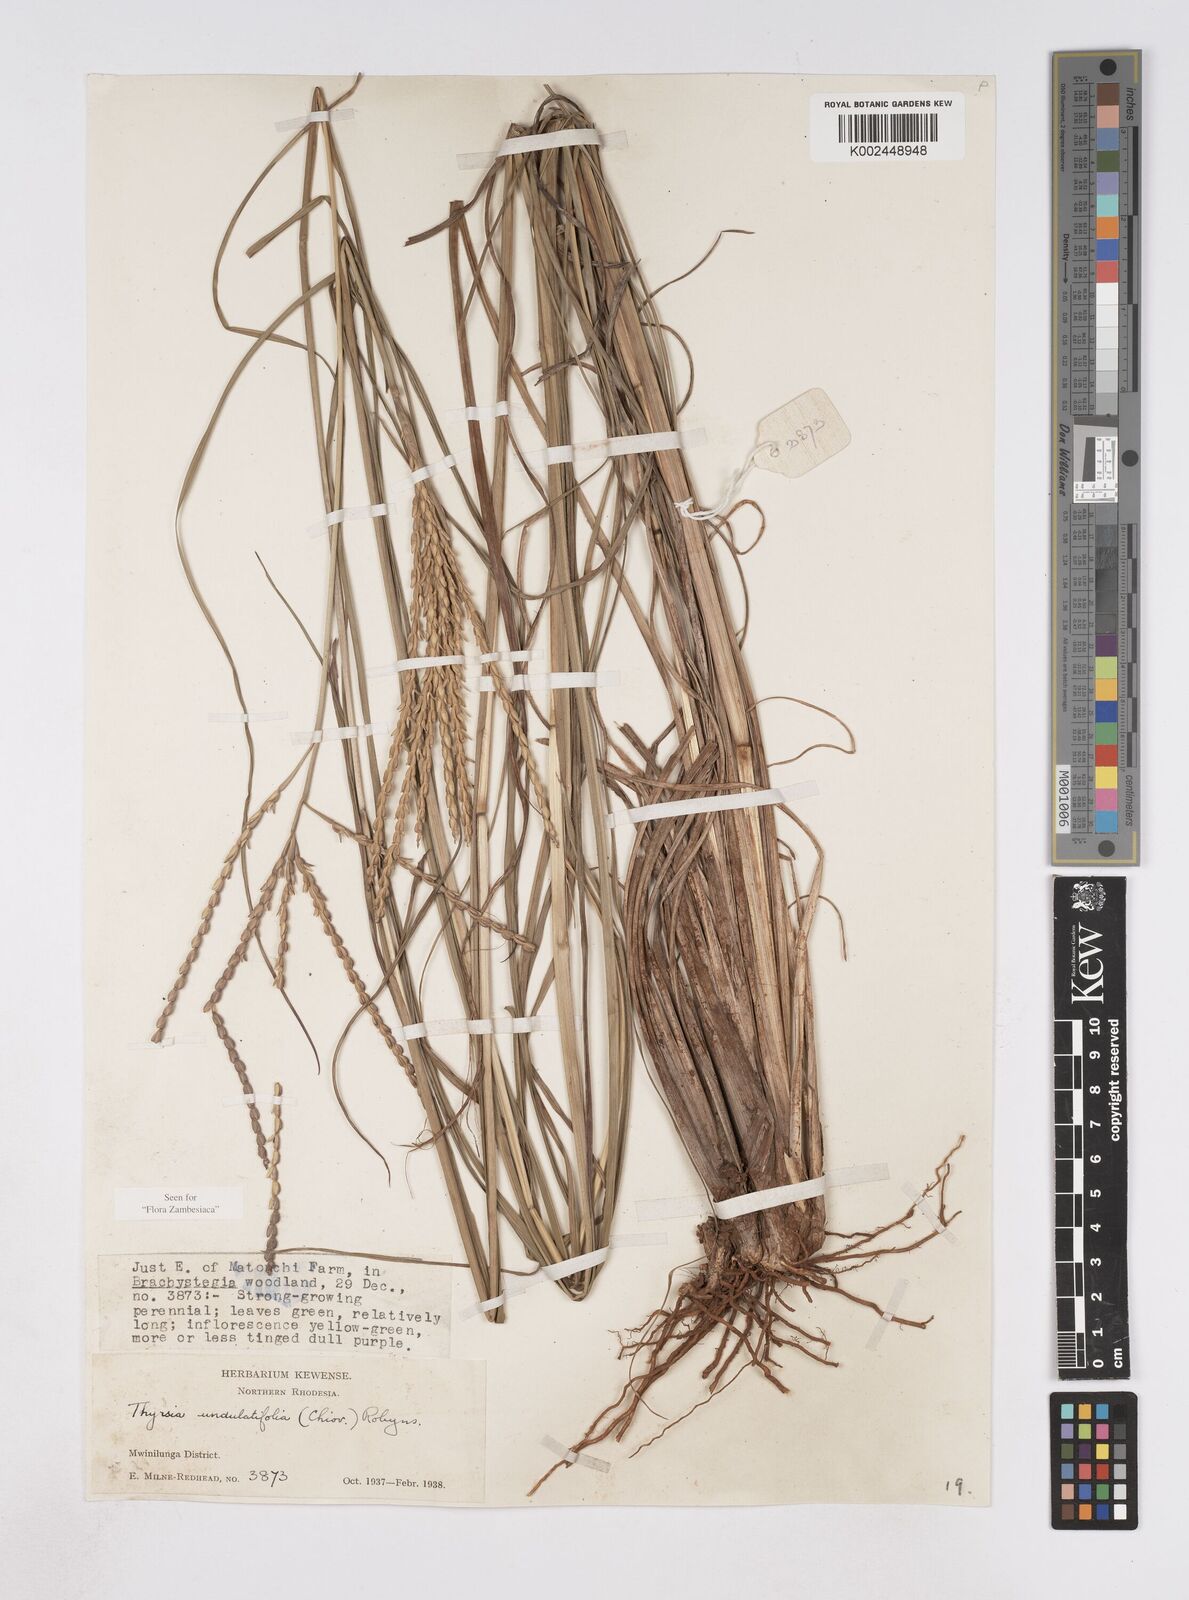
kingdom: Plantae
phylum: Tracheophyta
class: Liliopsida
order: Poales
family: Poaceae
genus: Thyrsia
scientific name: Thyrsia huillensis
